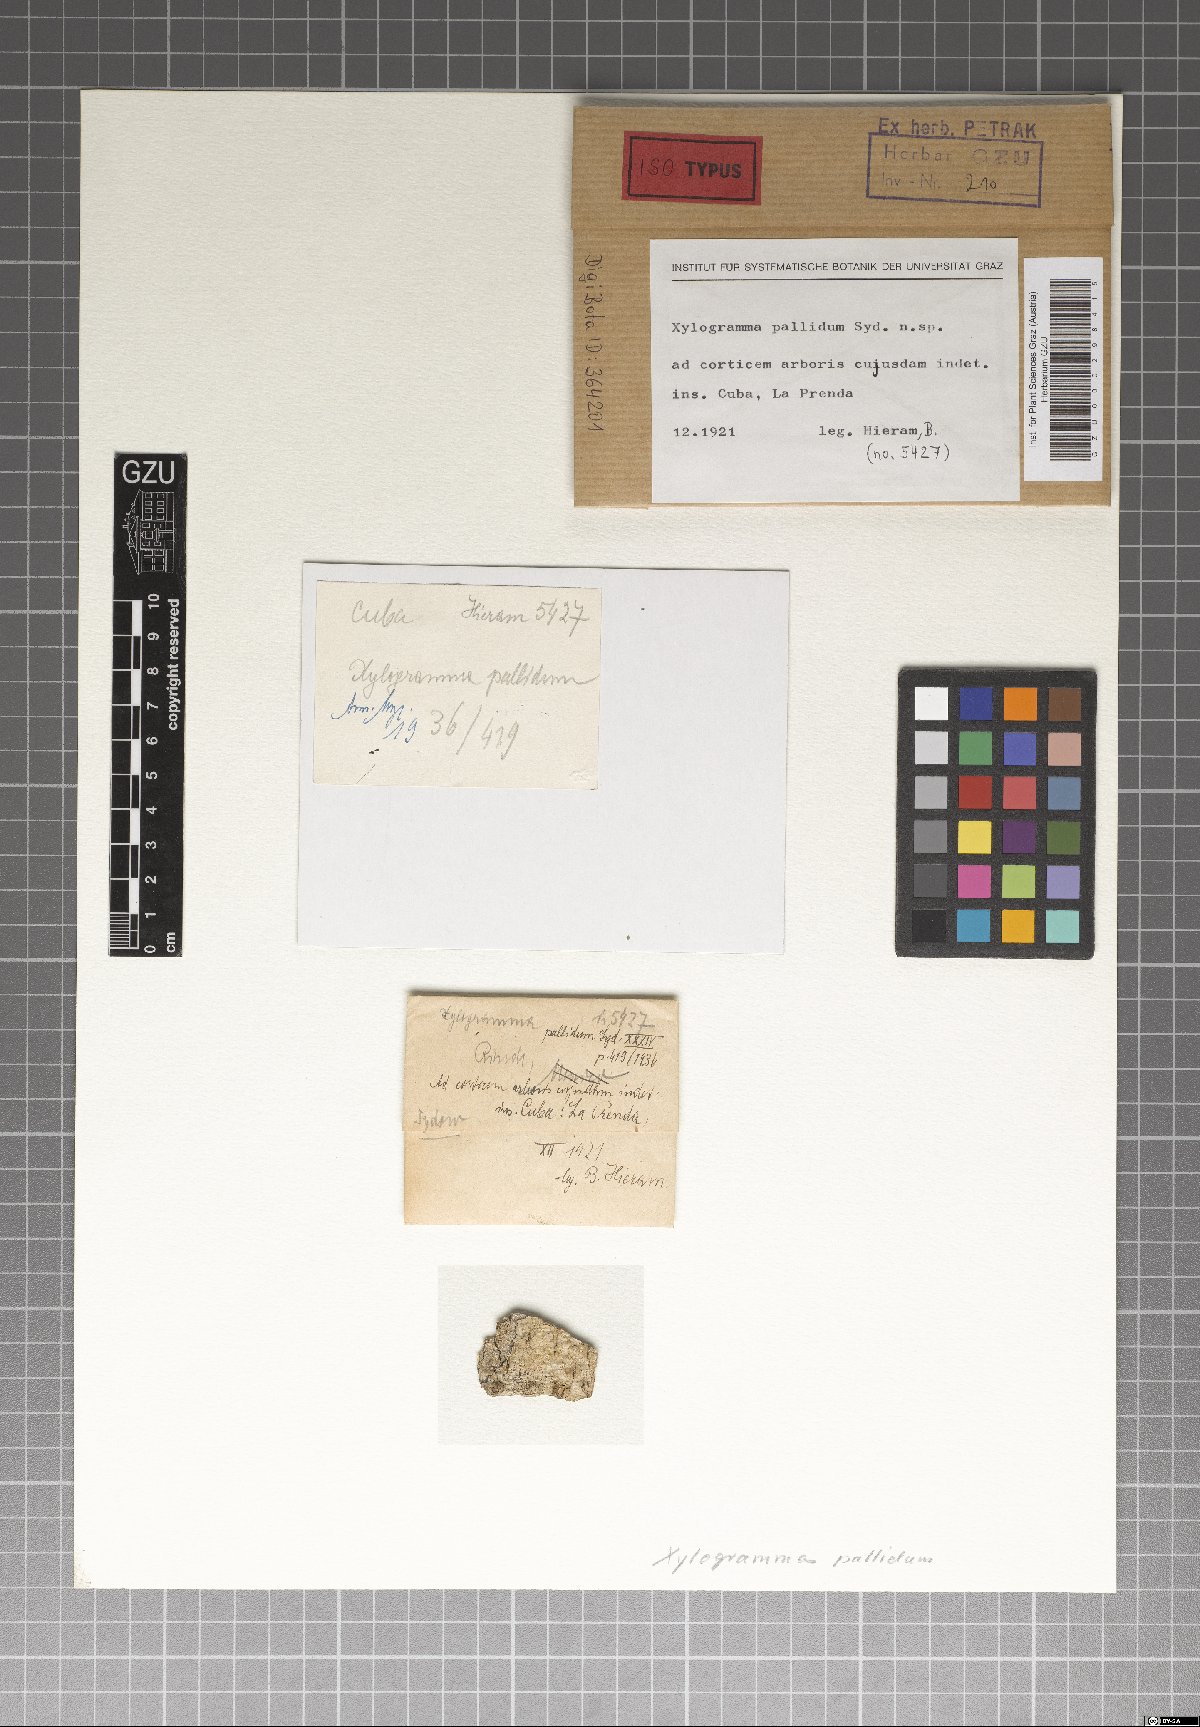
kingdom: Fungi
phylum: Ascomycota
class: Leotiomycetes
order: Helotiales
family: Helotiaceae
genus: Xylogramma
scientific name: Xylogramma pallidum
